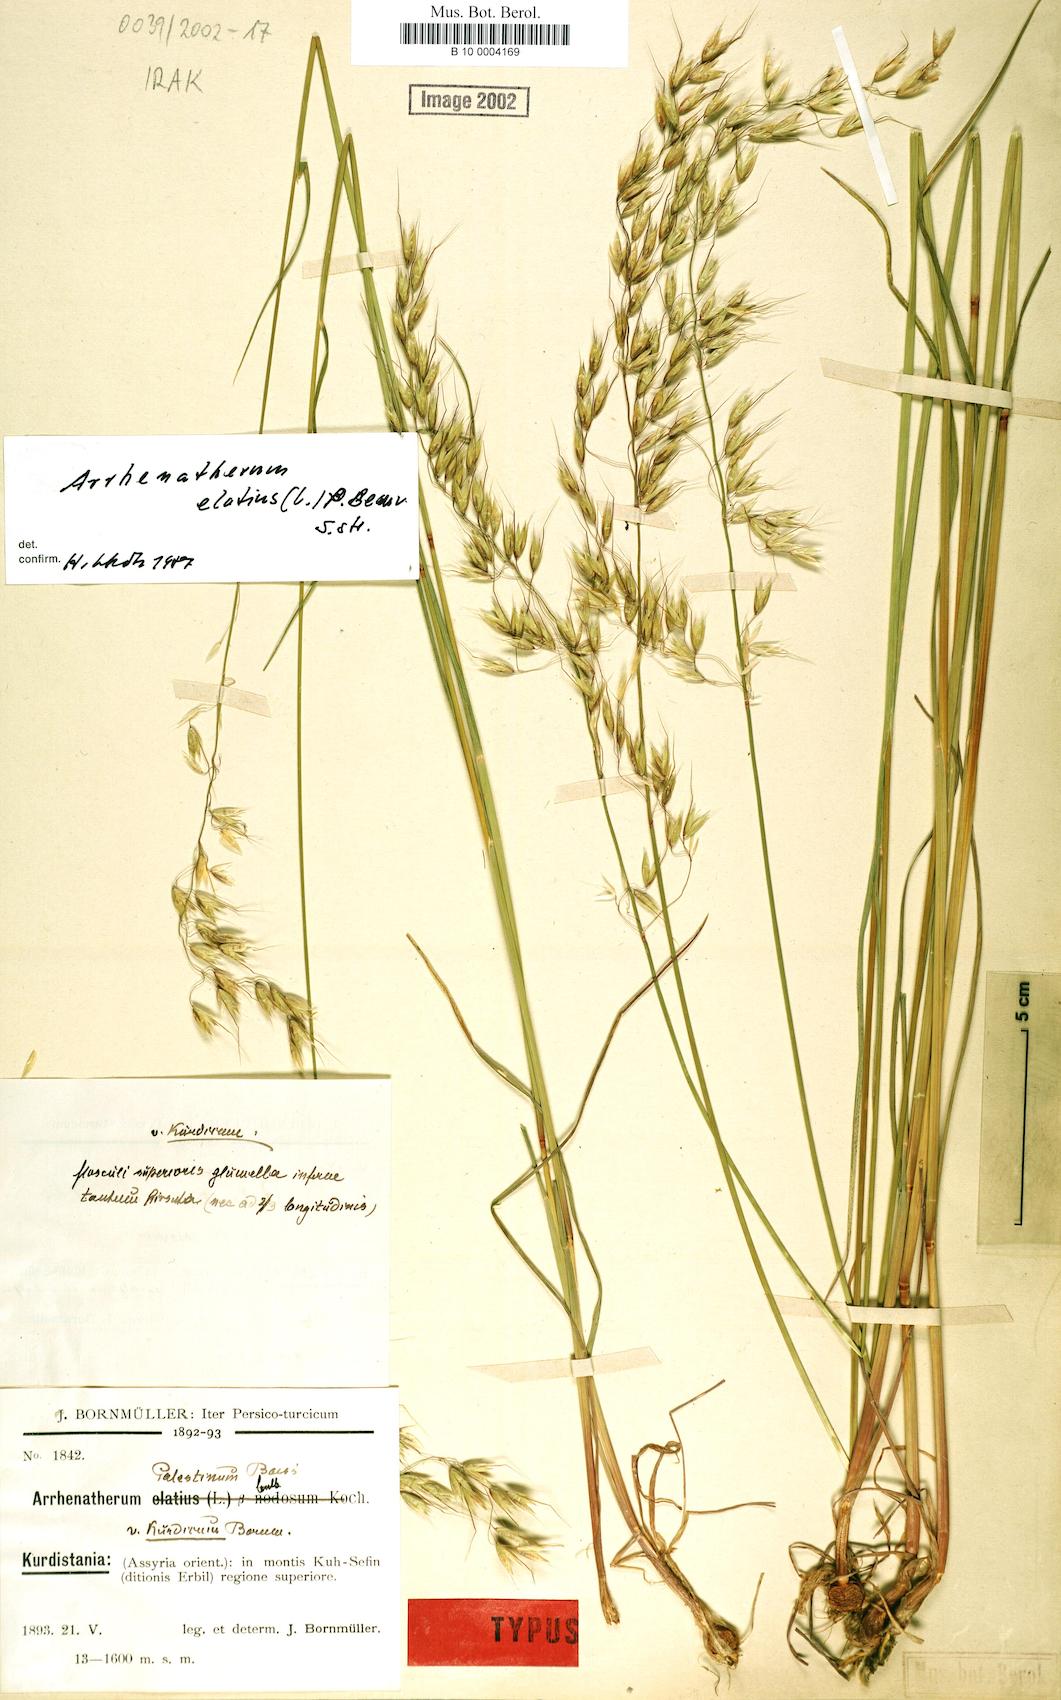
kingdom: Plantae
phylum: Tracheophyta
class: Liliopsida
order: Poales
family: Poaceae
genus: Arrhenatherum
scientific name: Arrhenatherum elatius
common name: Tall oatgrass
